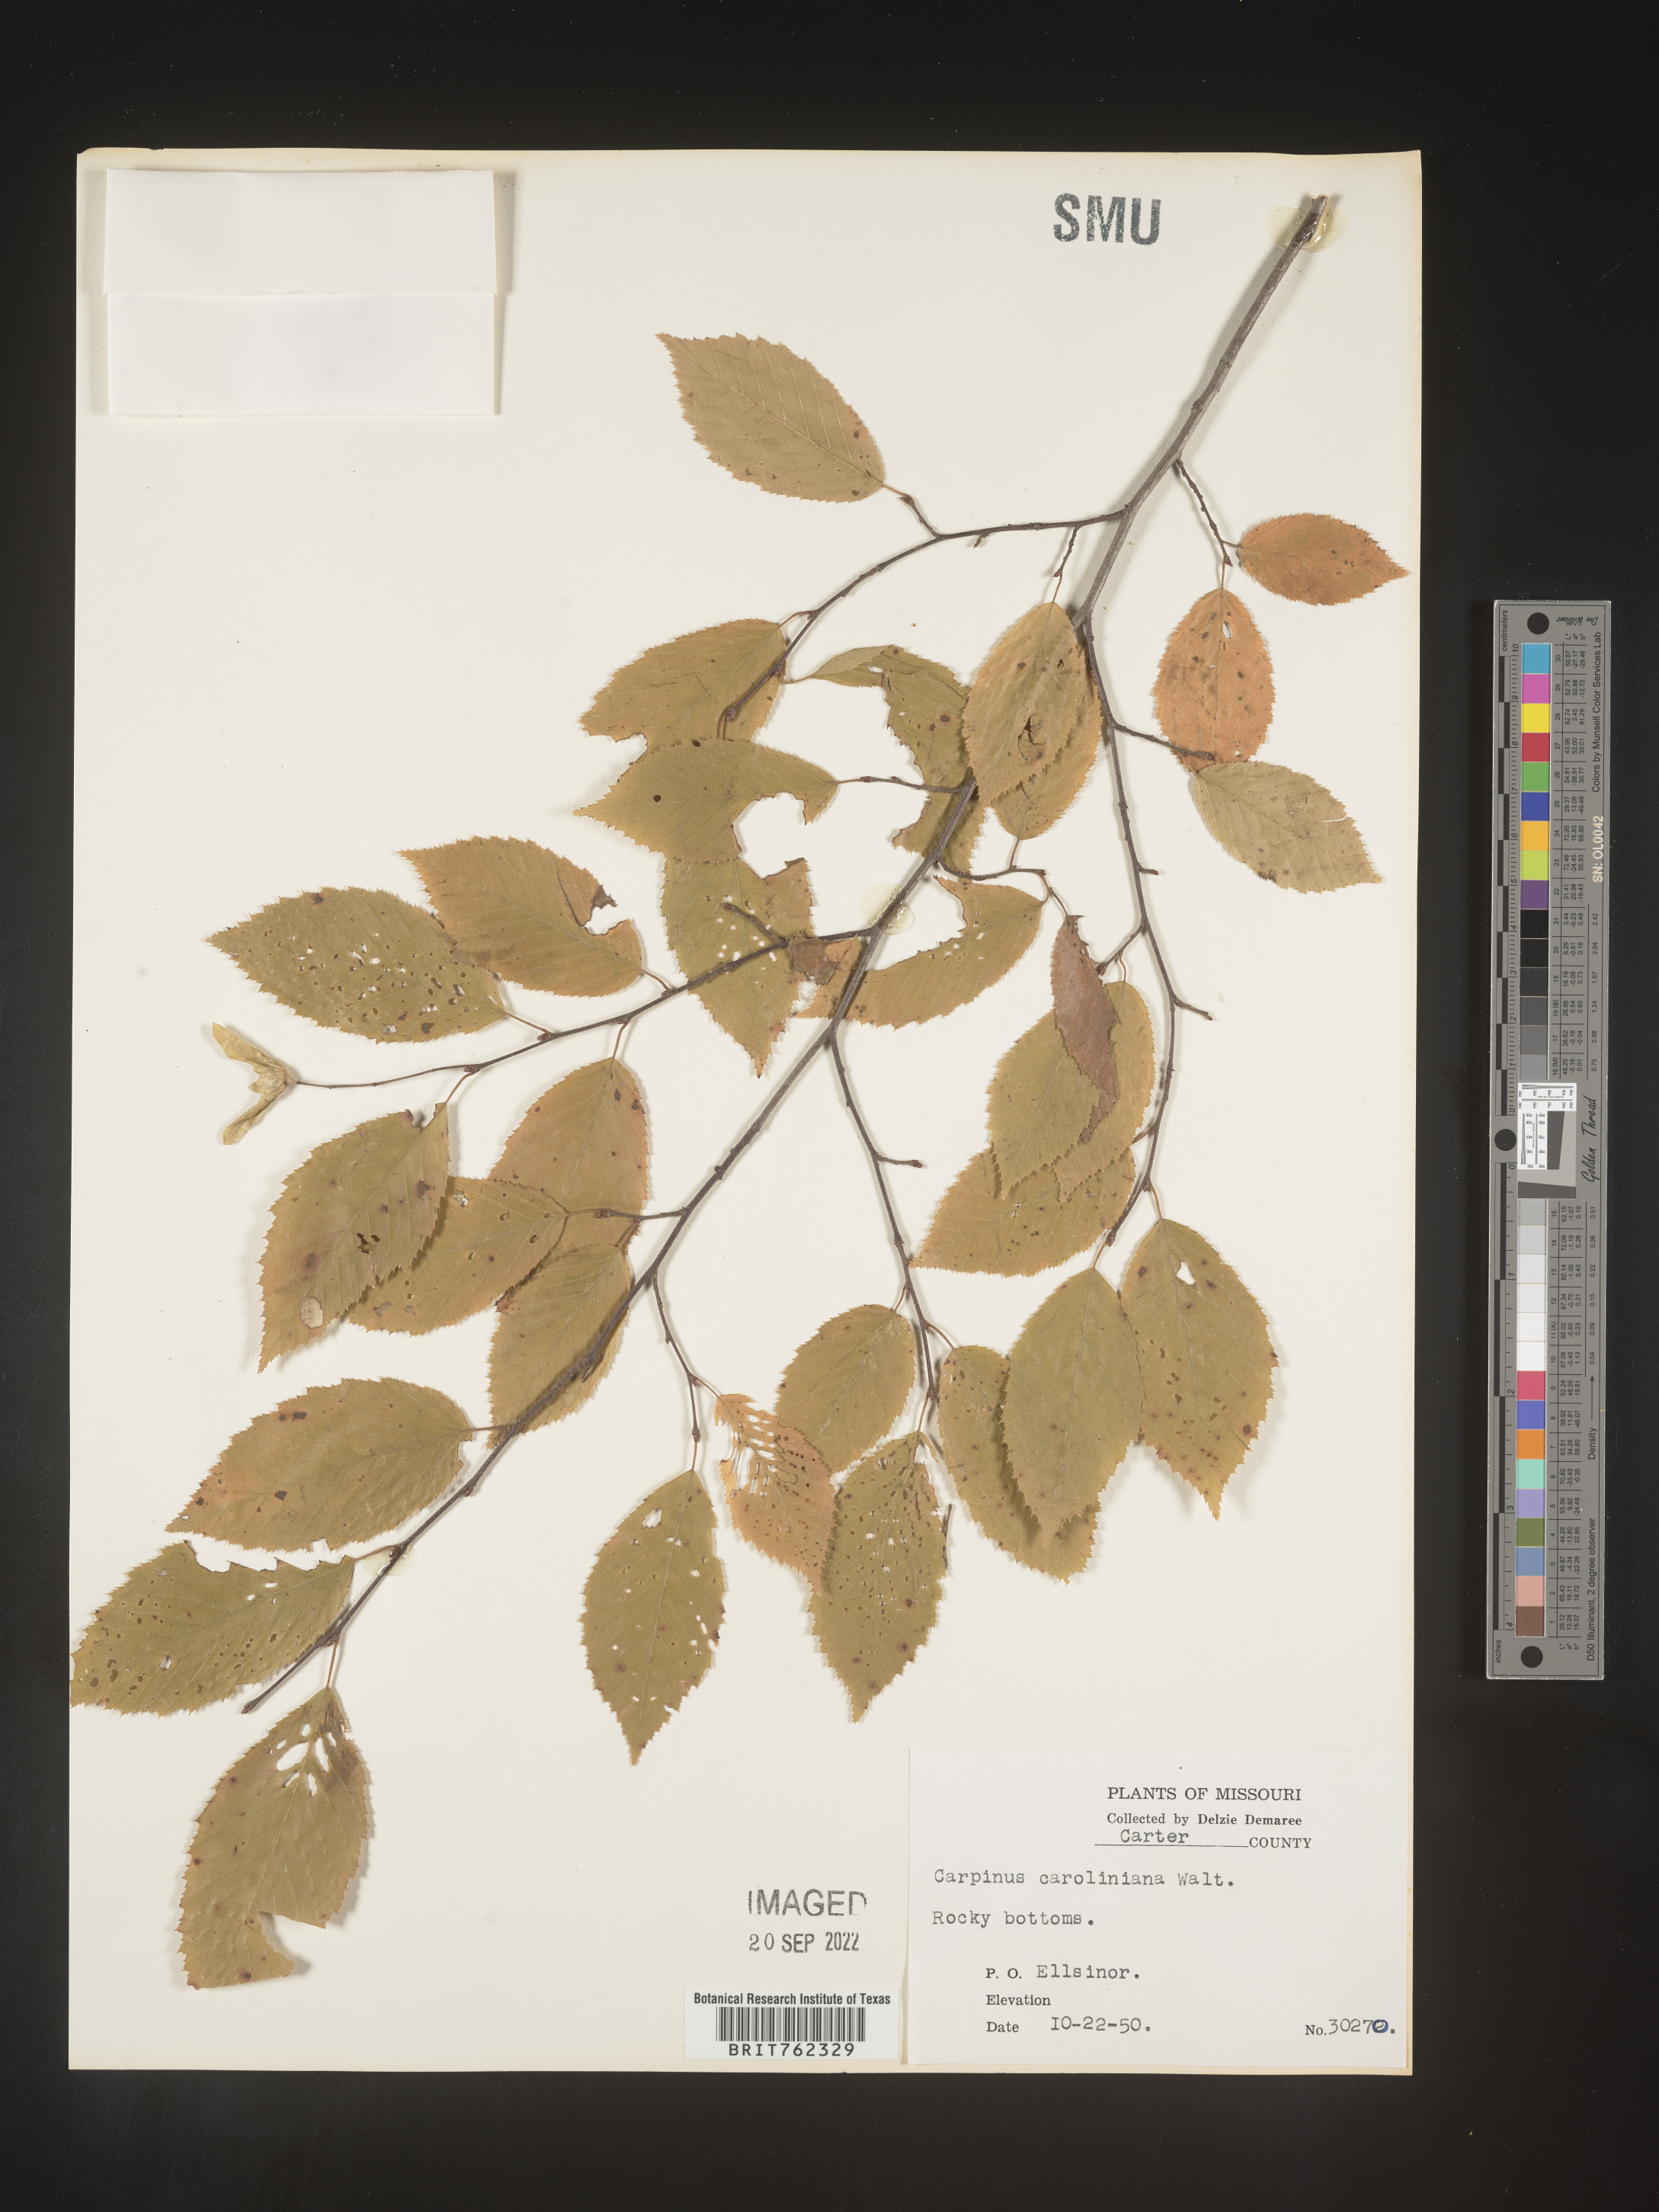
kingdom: Plantae
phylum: Tracheophyta
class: Magnoliopsida
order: Fagales
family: Betulaceae
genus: Carpinus
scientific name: Carpinus caroliniana
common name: American hornbeam
